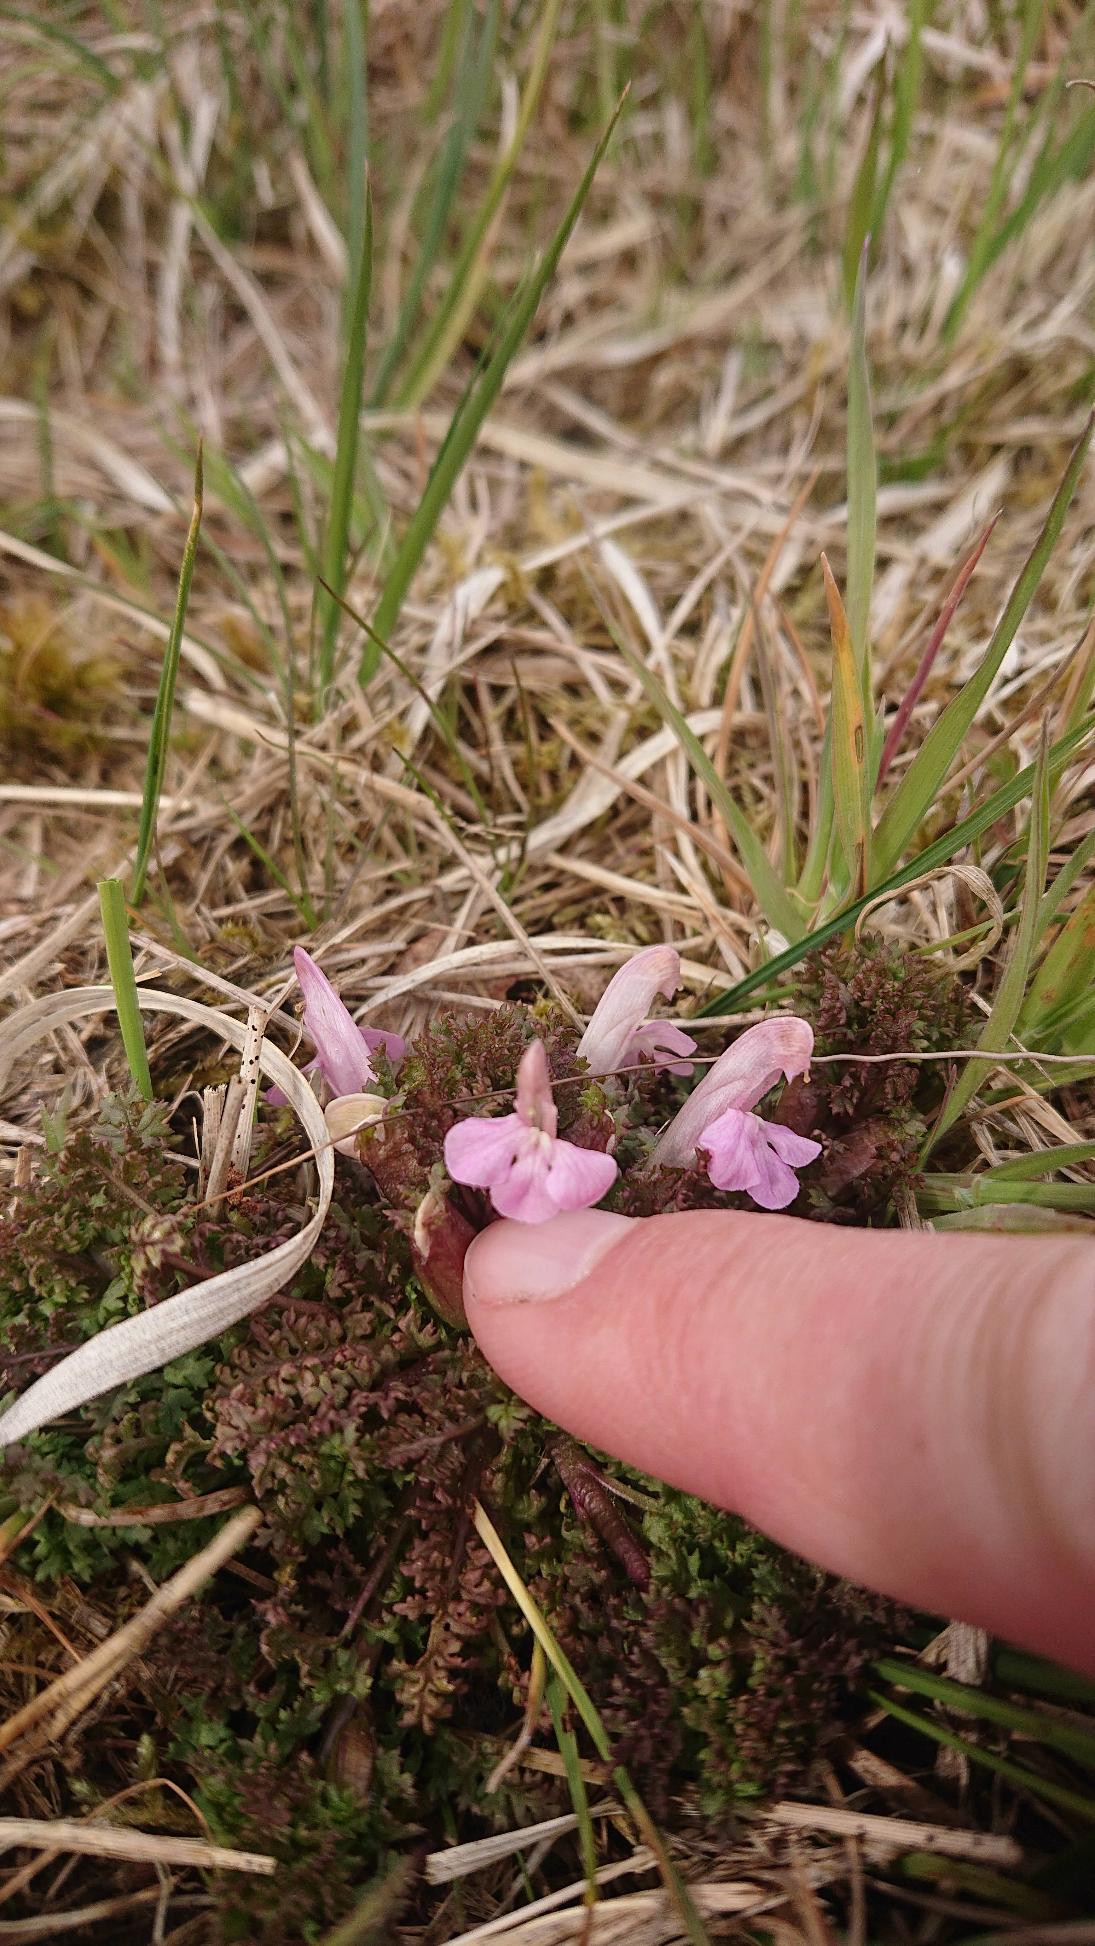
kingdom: Plantae
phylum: Tracheophyta
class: Magnoliopsida
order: Lamiales
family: Orobanchaceae
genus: Pedicularis
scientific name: Pedicularis sylvatica
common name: Mose-troldurt
